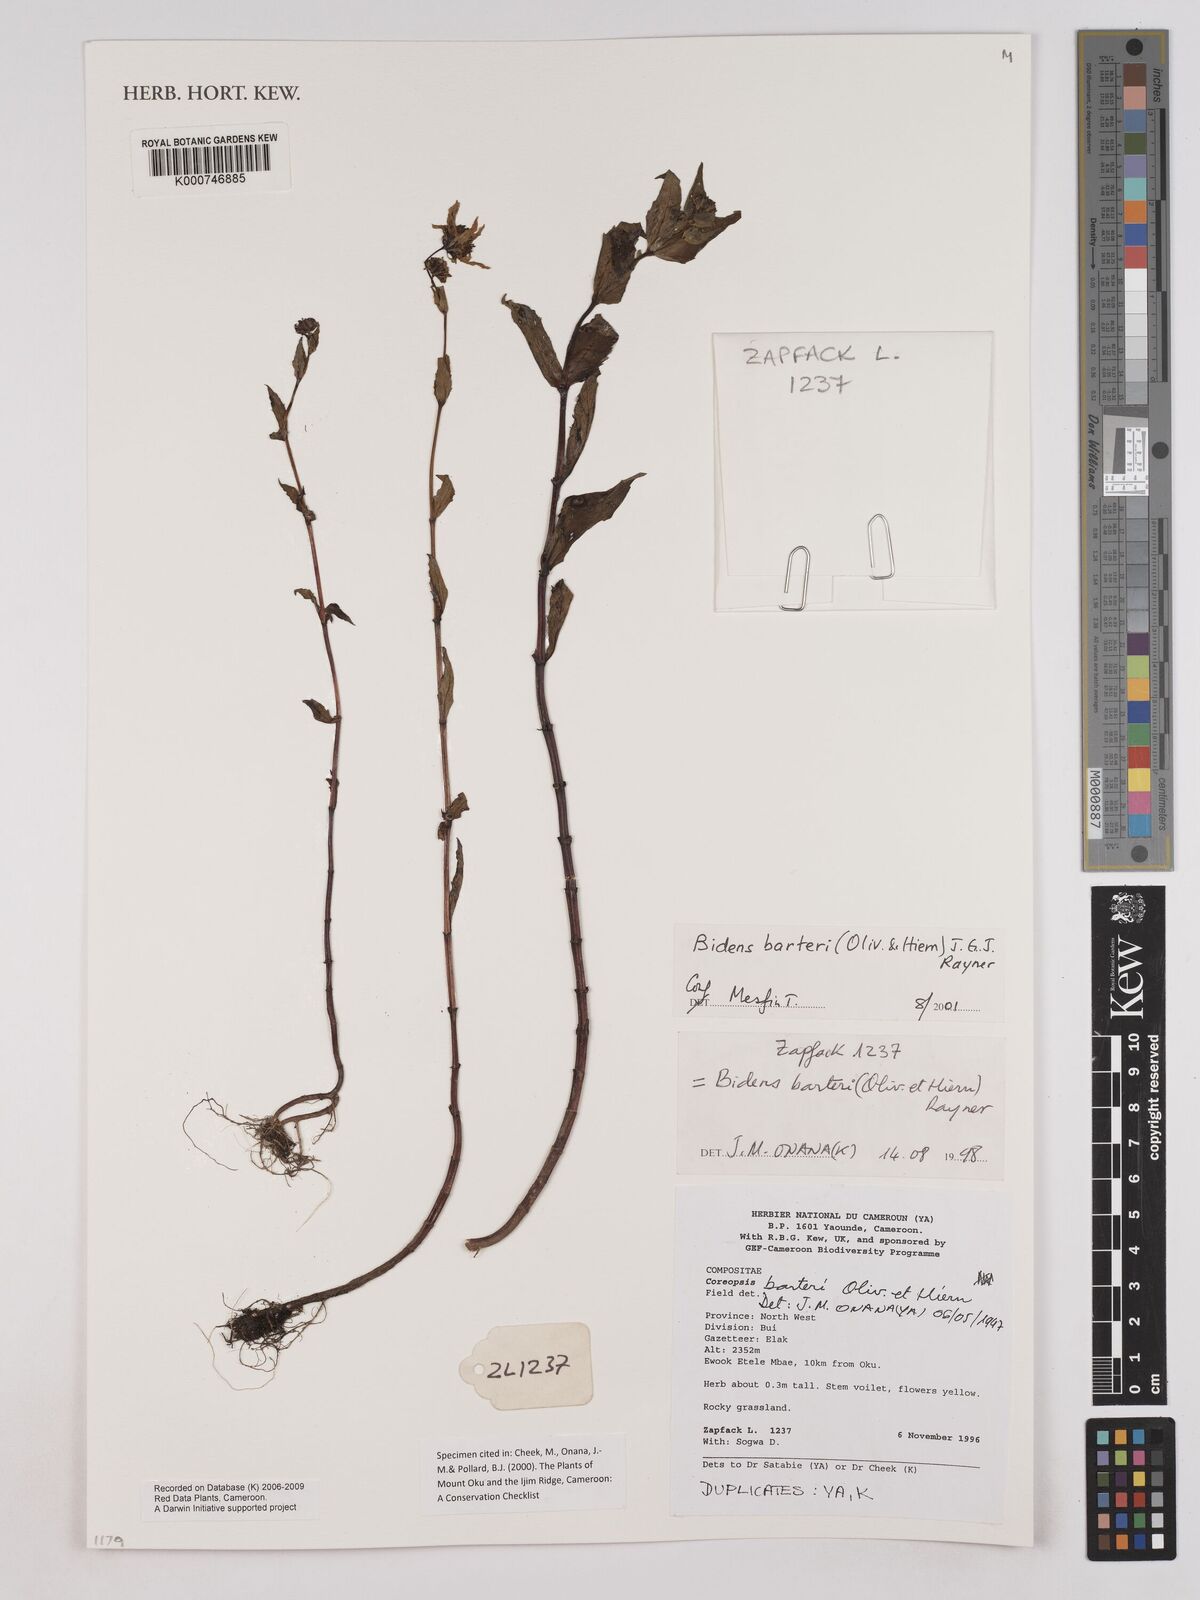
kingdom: Plantae
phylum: Tracheophyta
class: Magnoliopsida
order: Asterales
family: Asteraceae
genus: Bidens
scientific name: Bidens barteri
